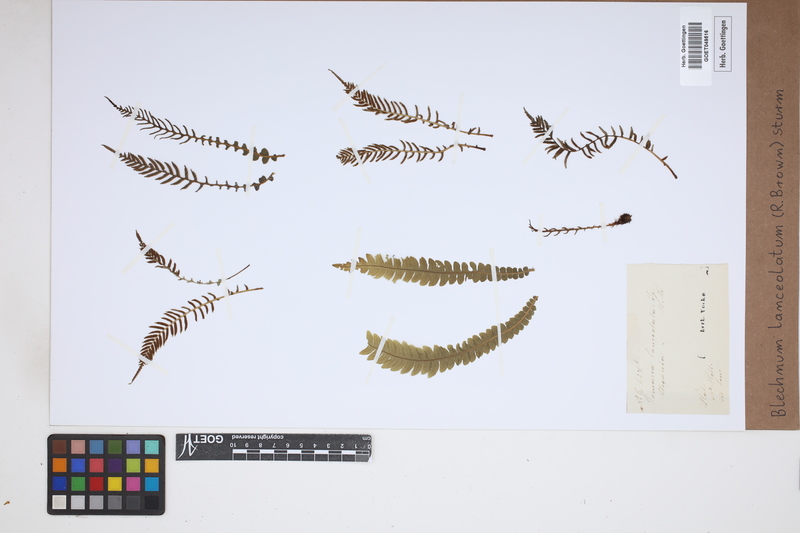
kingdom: Plantae
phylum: Tracheophyta
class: Polypodiopsida
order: Polypodiales
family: Blechnaceae
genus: Austroblechnum
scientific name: Austroblechnum lanceolatum
